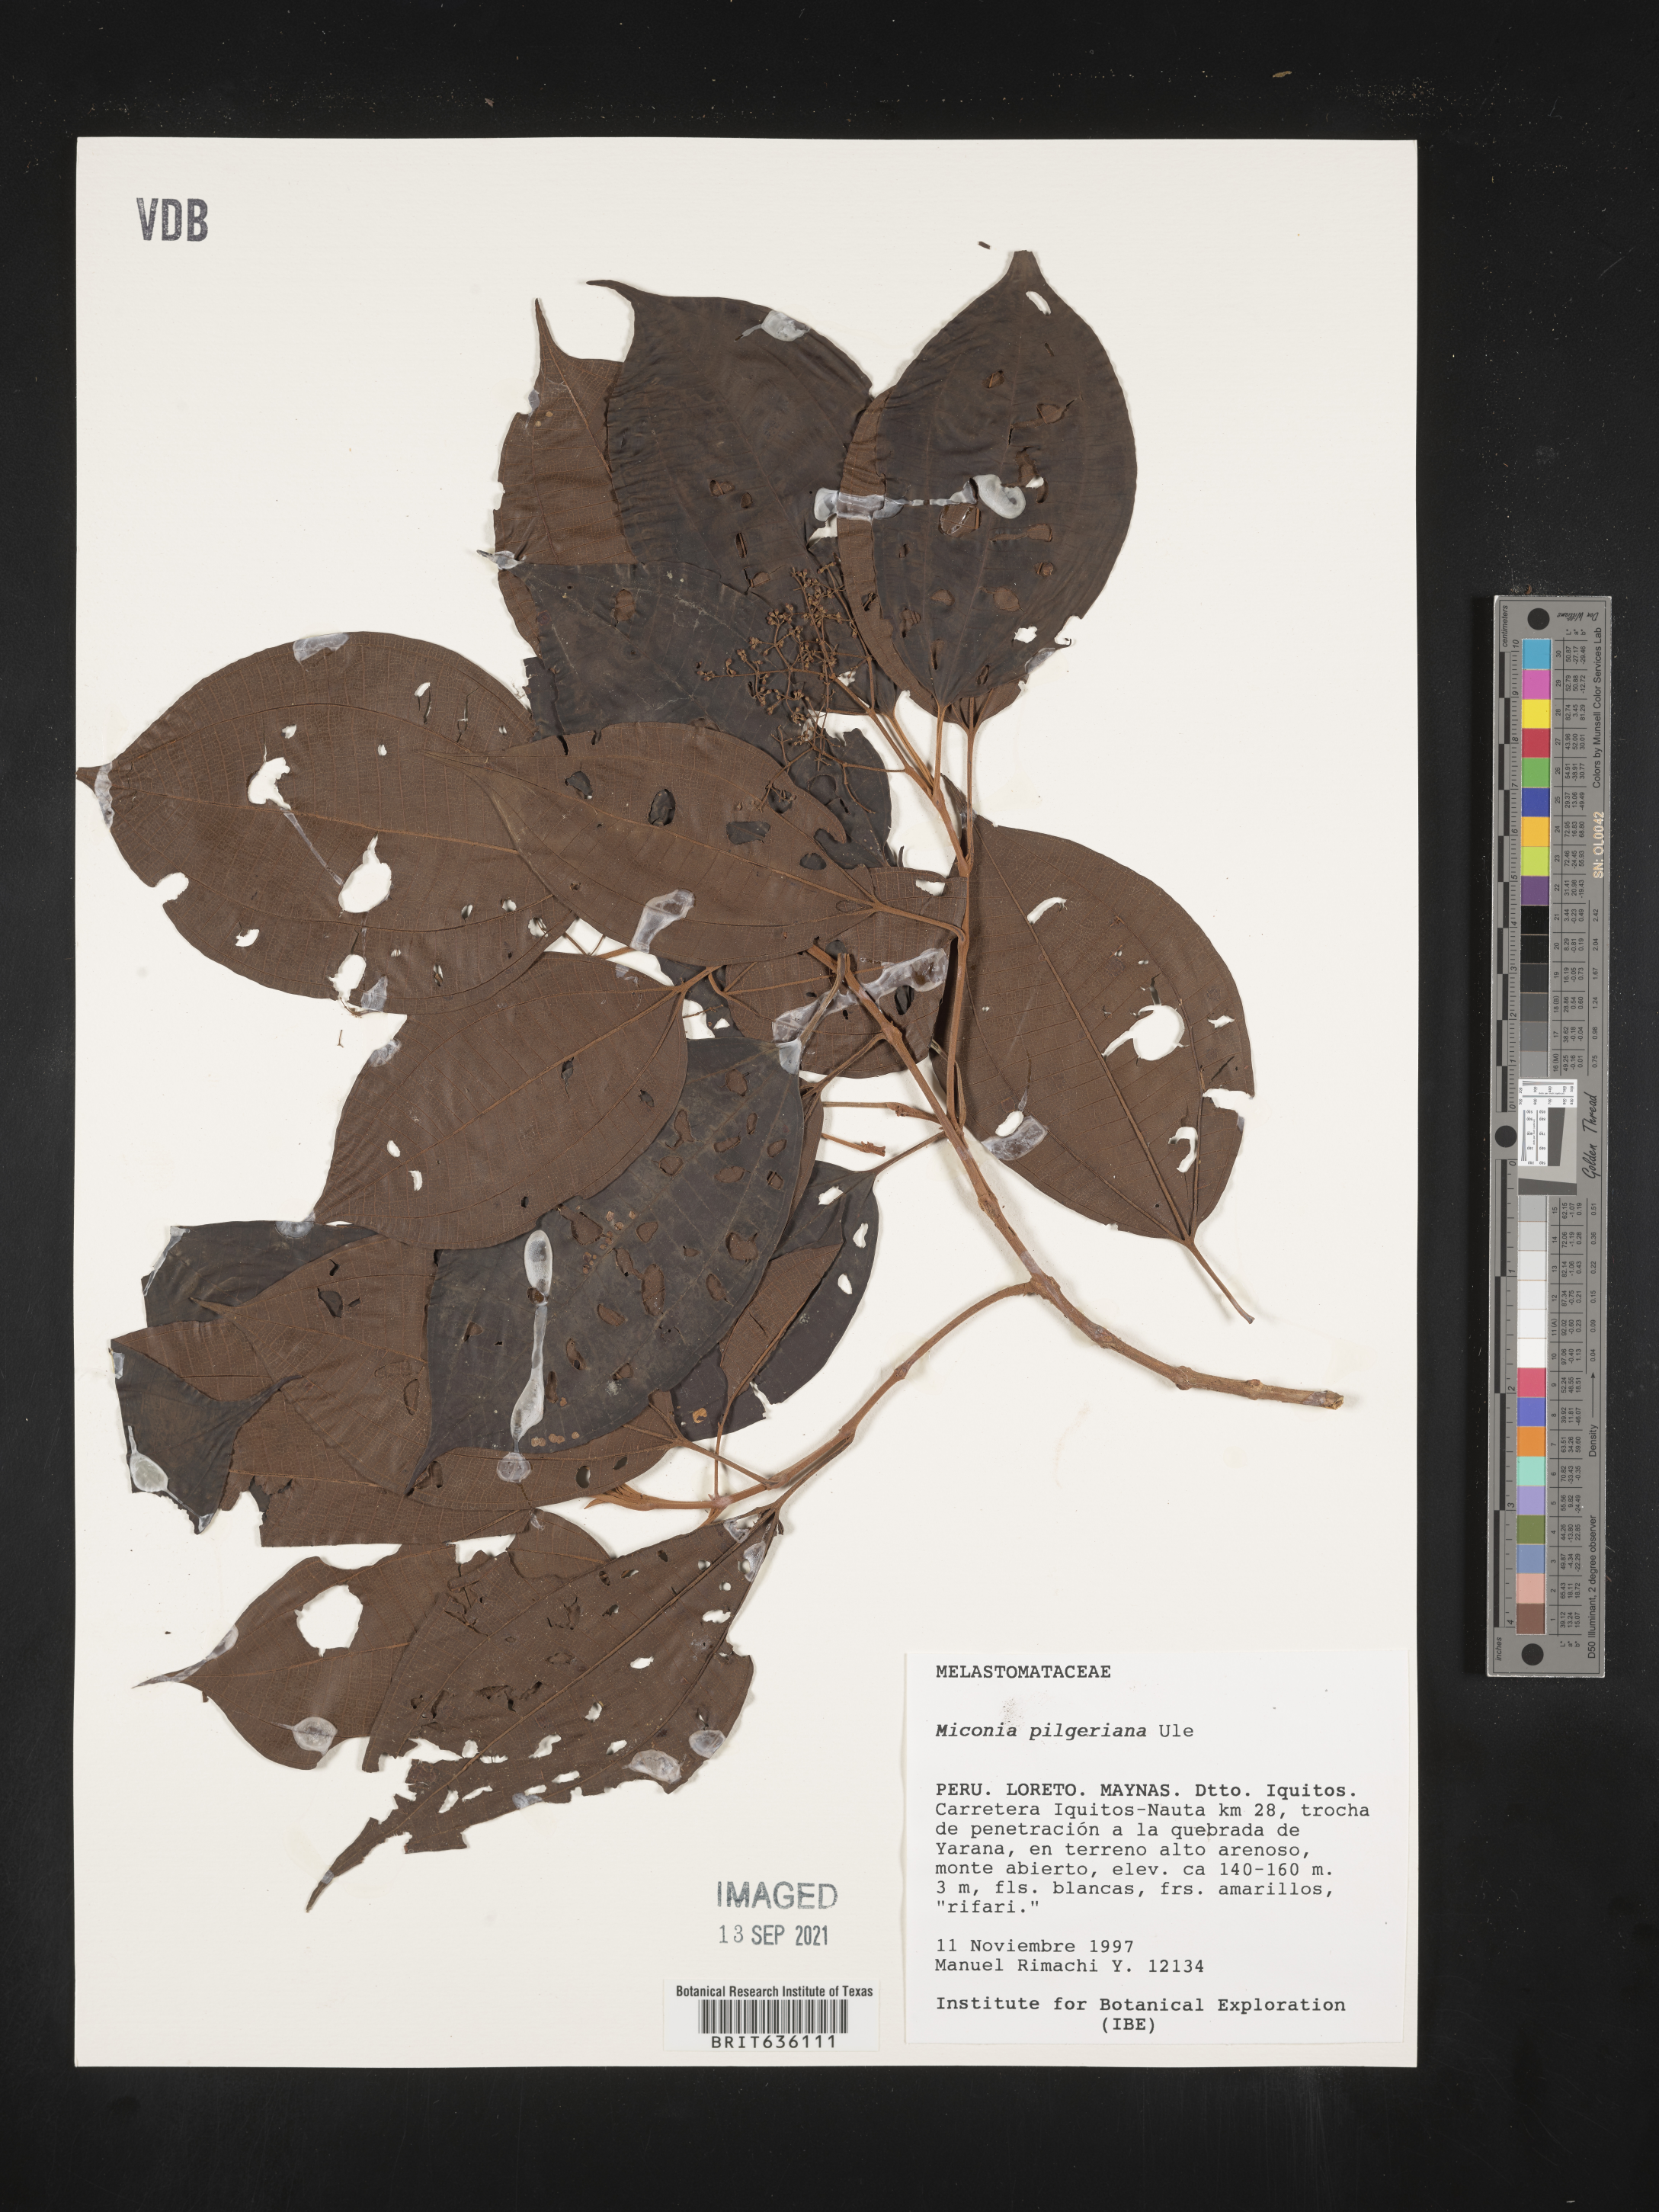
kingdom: Plantae
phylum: Tracheophyta
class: Magnoliopsida
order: Myrtales
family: Melastomataceae
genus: Miconia
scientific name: Miconia
